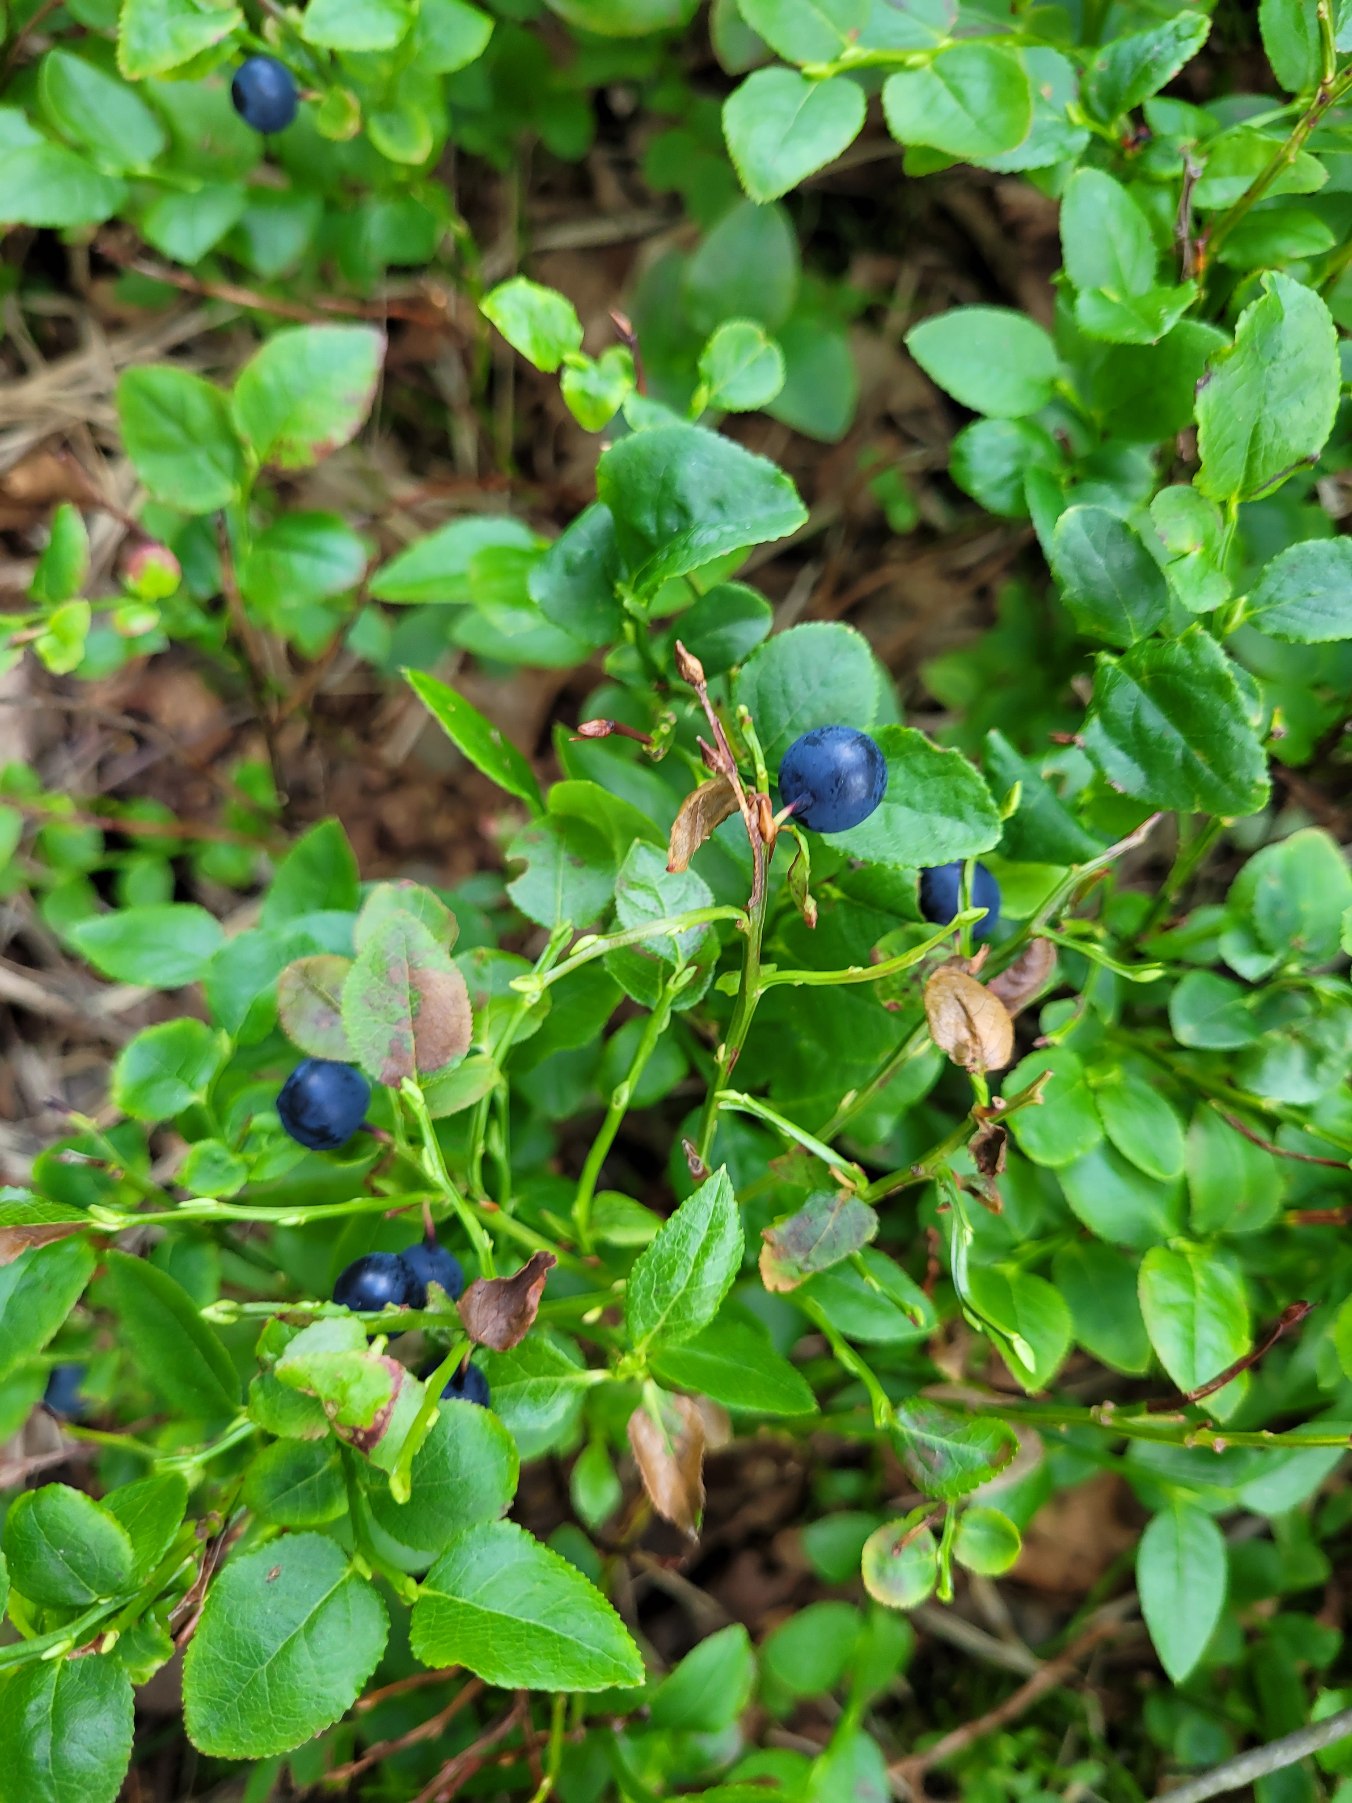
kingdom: Plantae
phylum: Tracheophyta
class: Magnoliopsida
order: Ericales
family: Ericaceae
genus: Vaccinium
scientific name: Vaccinium myrtillus
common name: Blåbær
